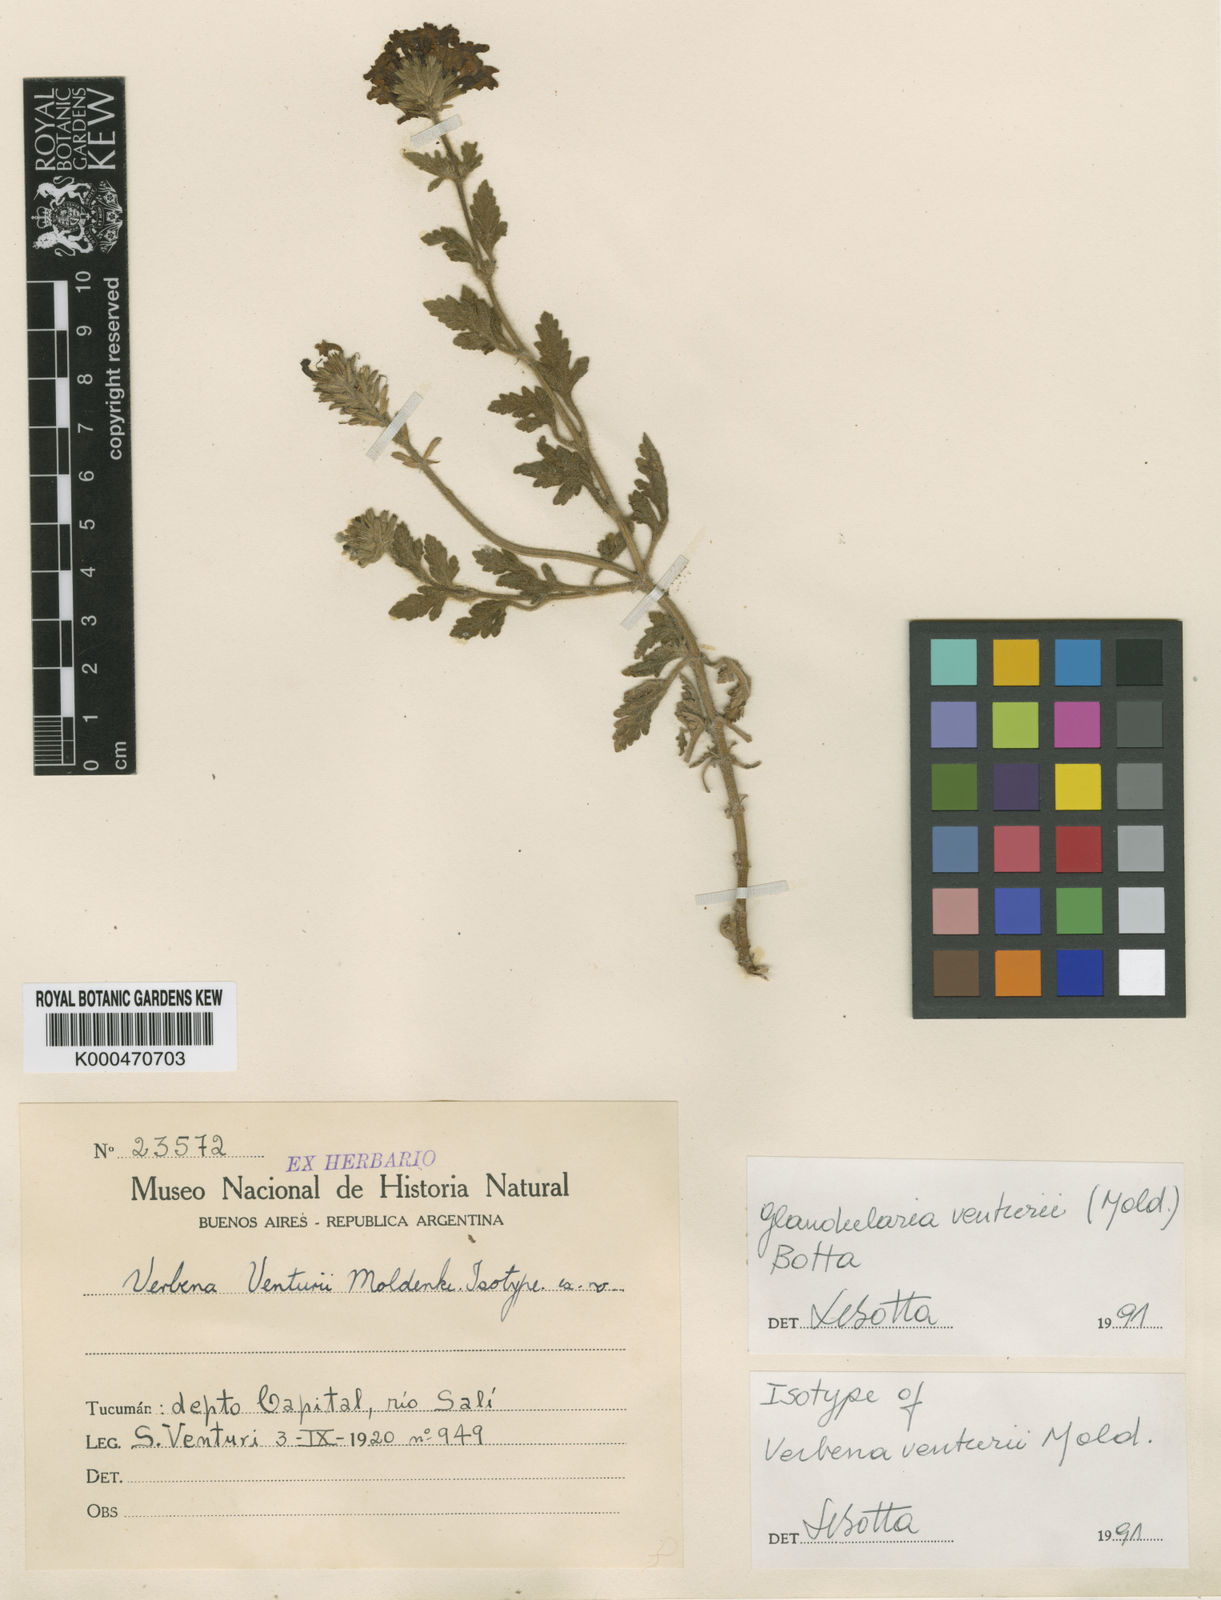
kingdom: Plantae
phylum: Tracheophyta
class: Magnoliopsida
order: Lamiales
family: Verbenaceae
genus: Verbena
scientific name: Verbena venturii
